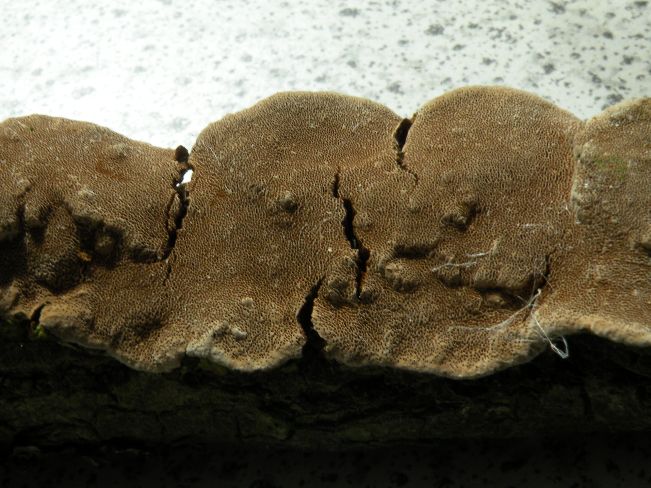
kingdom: Fungi
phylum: Basidiomycota
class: Agaricomycetes
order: Hymenochaetales
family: Hymenochaetaceae
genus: Phellinopsis
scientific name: Phellinopsis conchata
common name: pile-ildporesvamp
